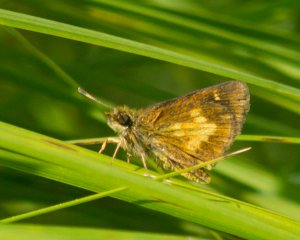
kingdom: Animalia
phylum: Arthropoda
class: Insecta
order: Lepidoptera
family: Hesperiidae
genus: Poanes
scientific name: Poanes massasoit
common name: Mulberry Wing
